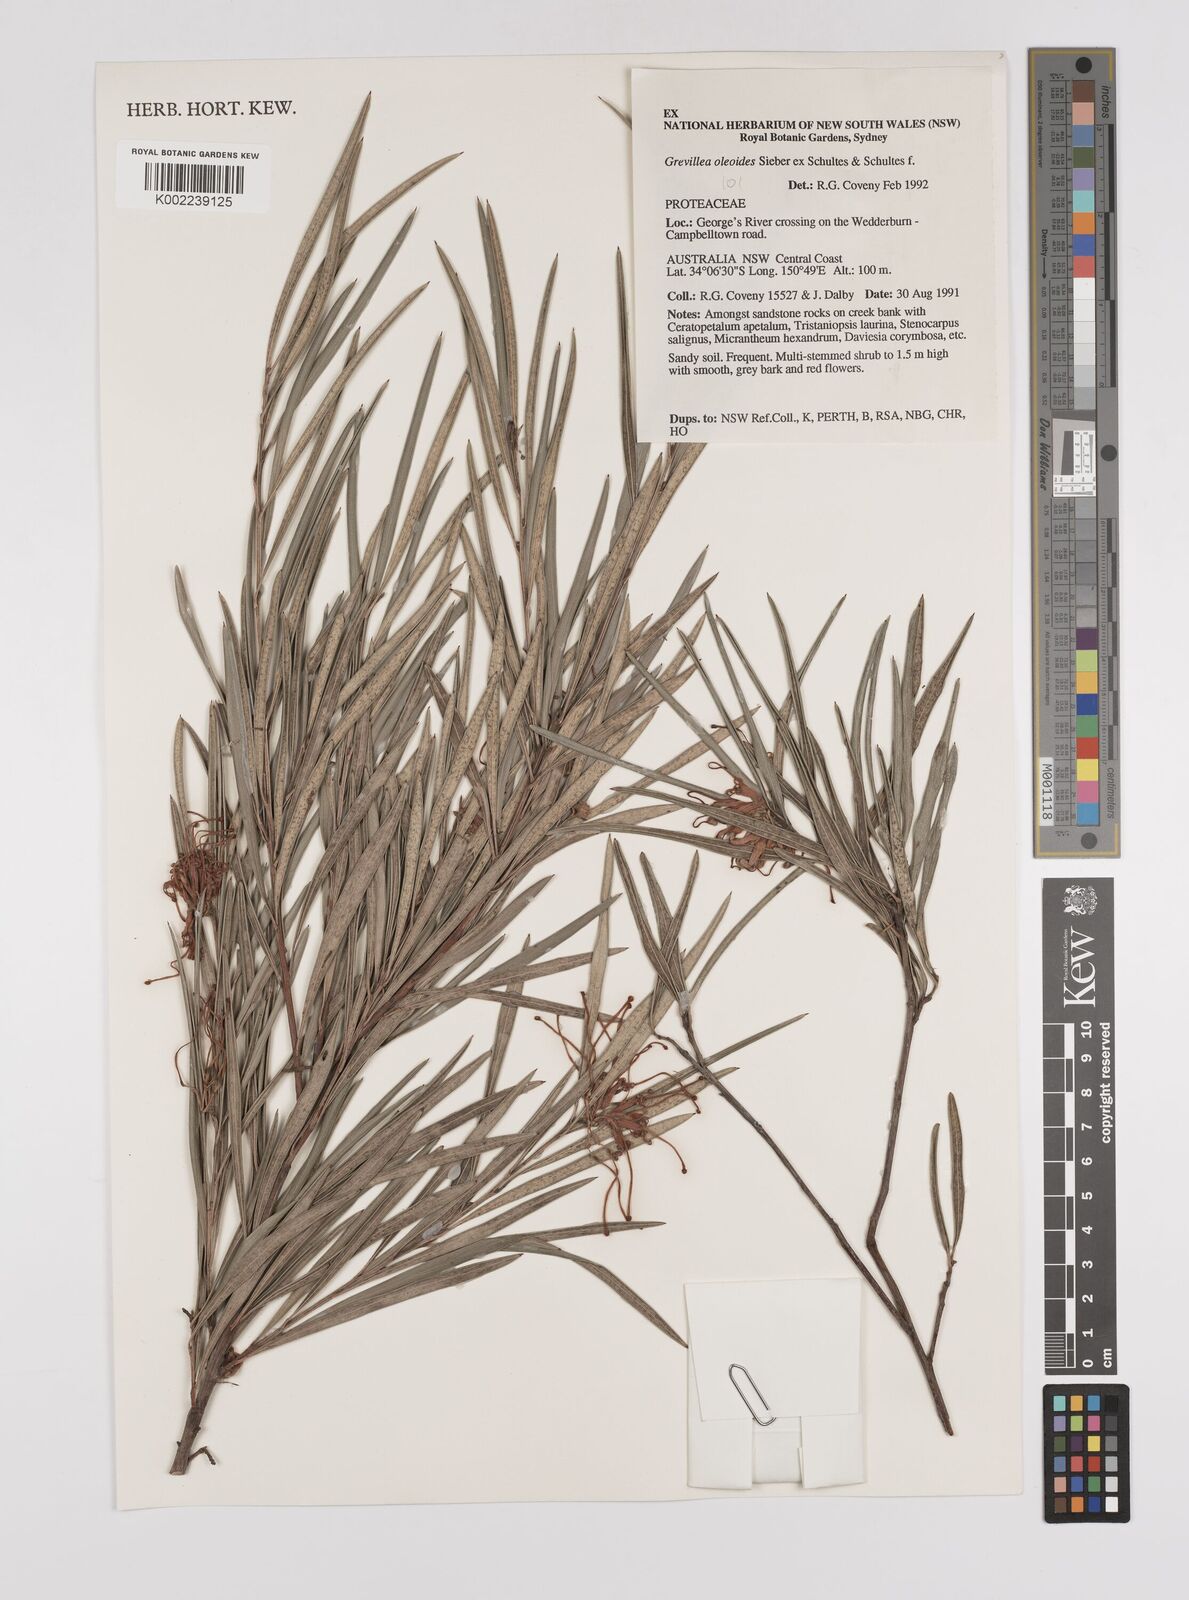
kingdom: Plantae
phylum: Tracheophyta
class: Magnoliopsida
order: Proteales
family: Proteaceae
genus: Grevillea
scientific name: Grevillea oleoides
